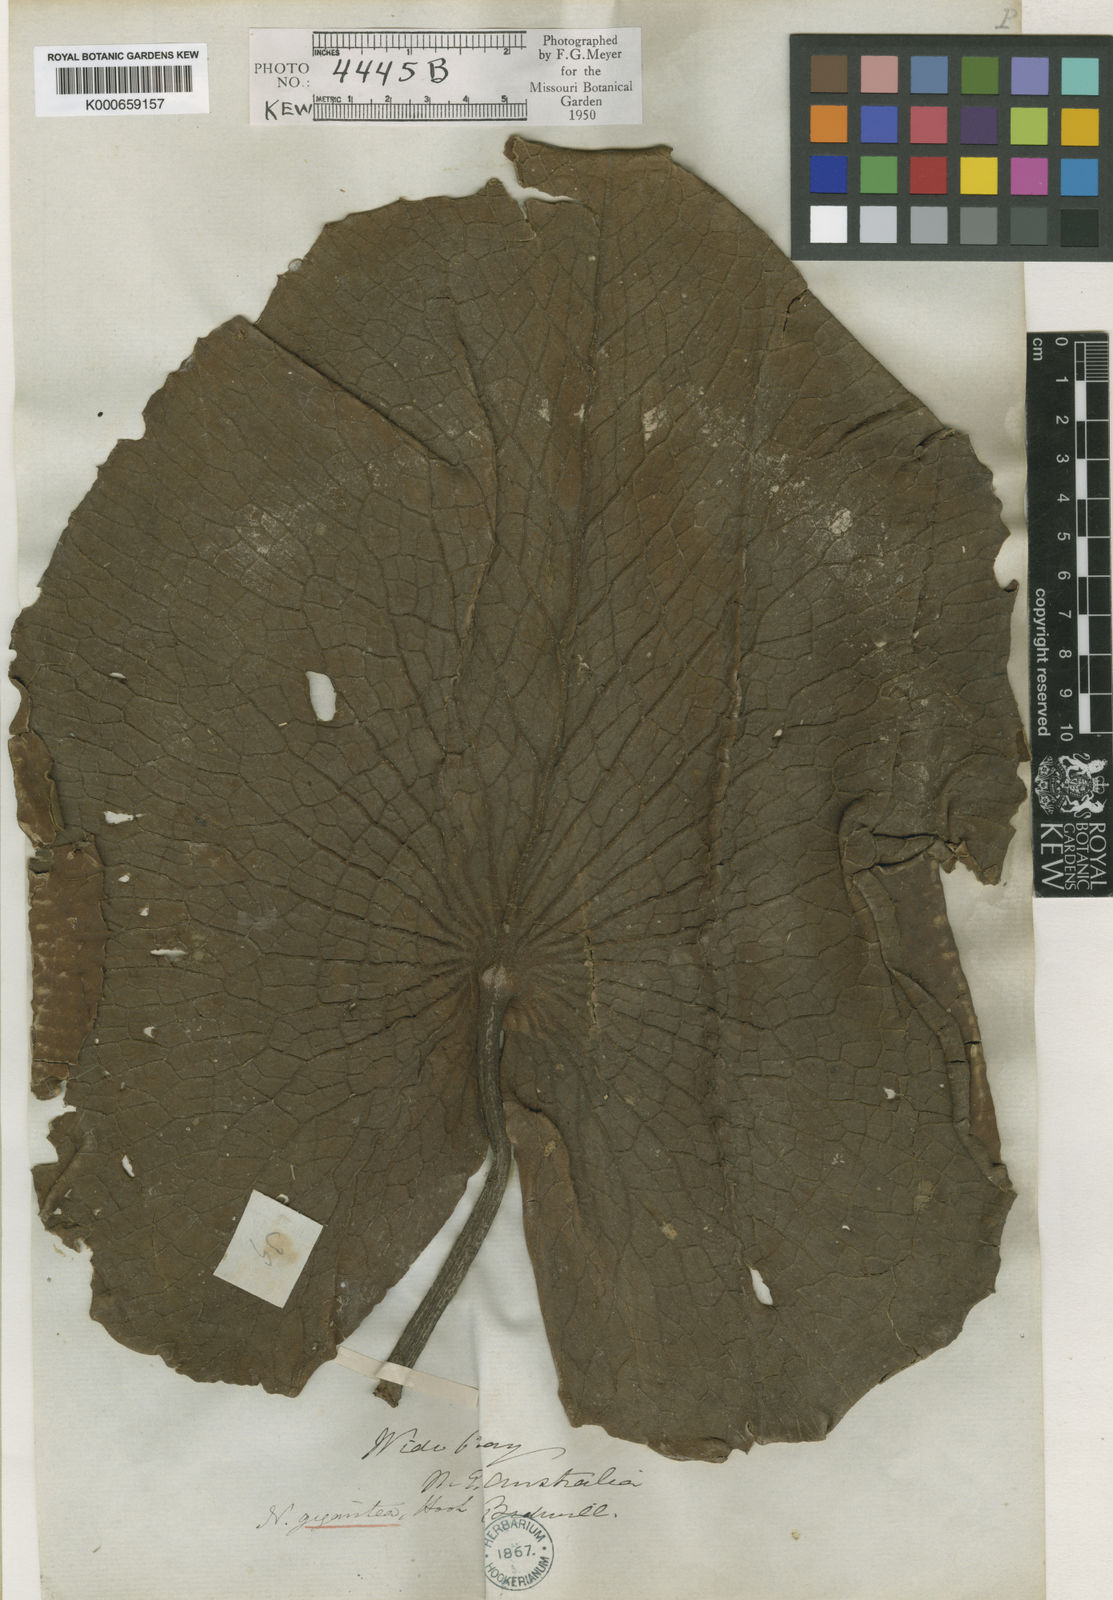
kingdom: Plantae
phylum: Tracheophyta
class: Magnoliopsida
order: Nymphaeales
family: Nymphaeaceae
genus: Nymphaea
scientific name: Nymphaea gigantea
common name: Giant water-lily
